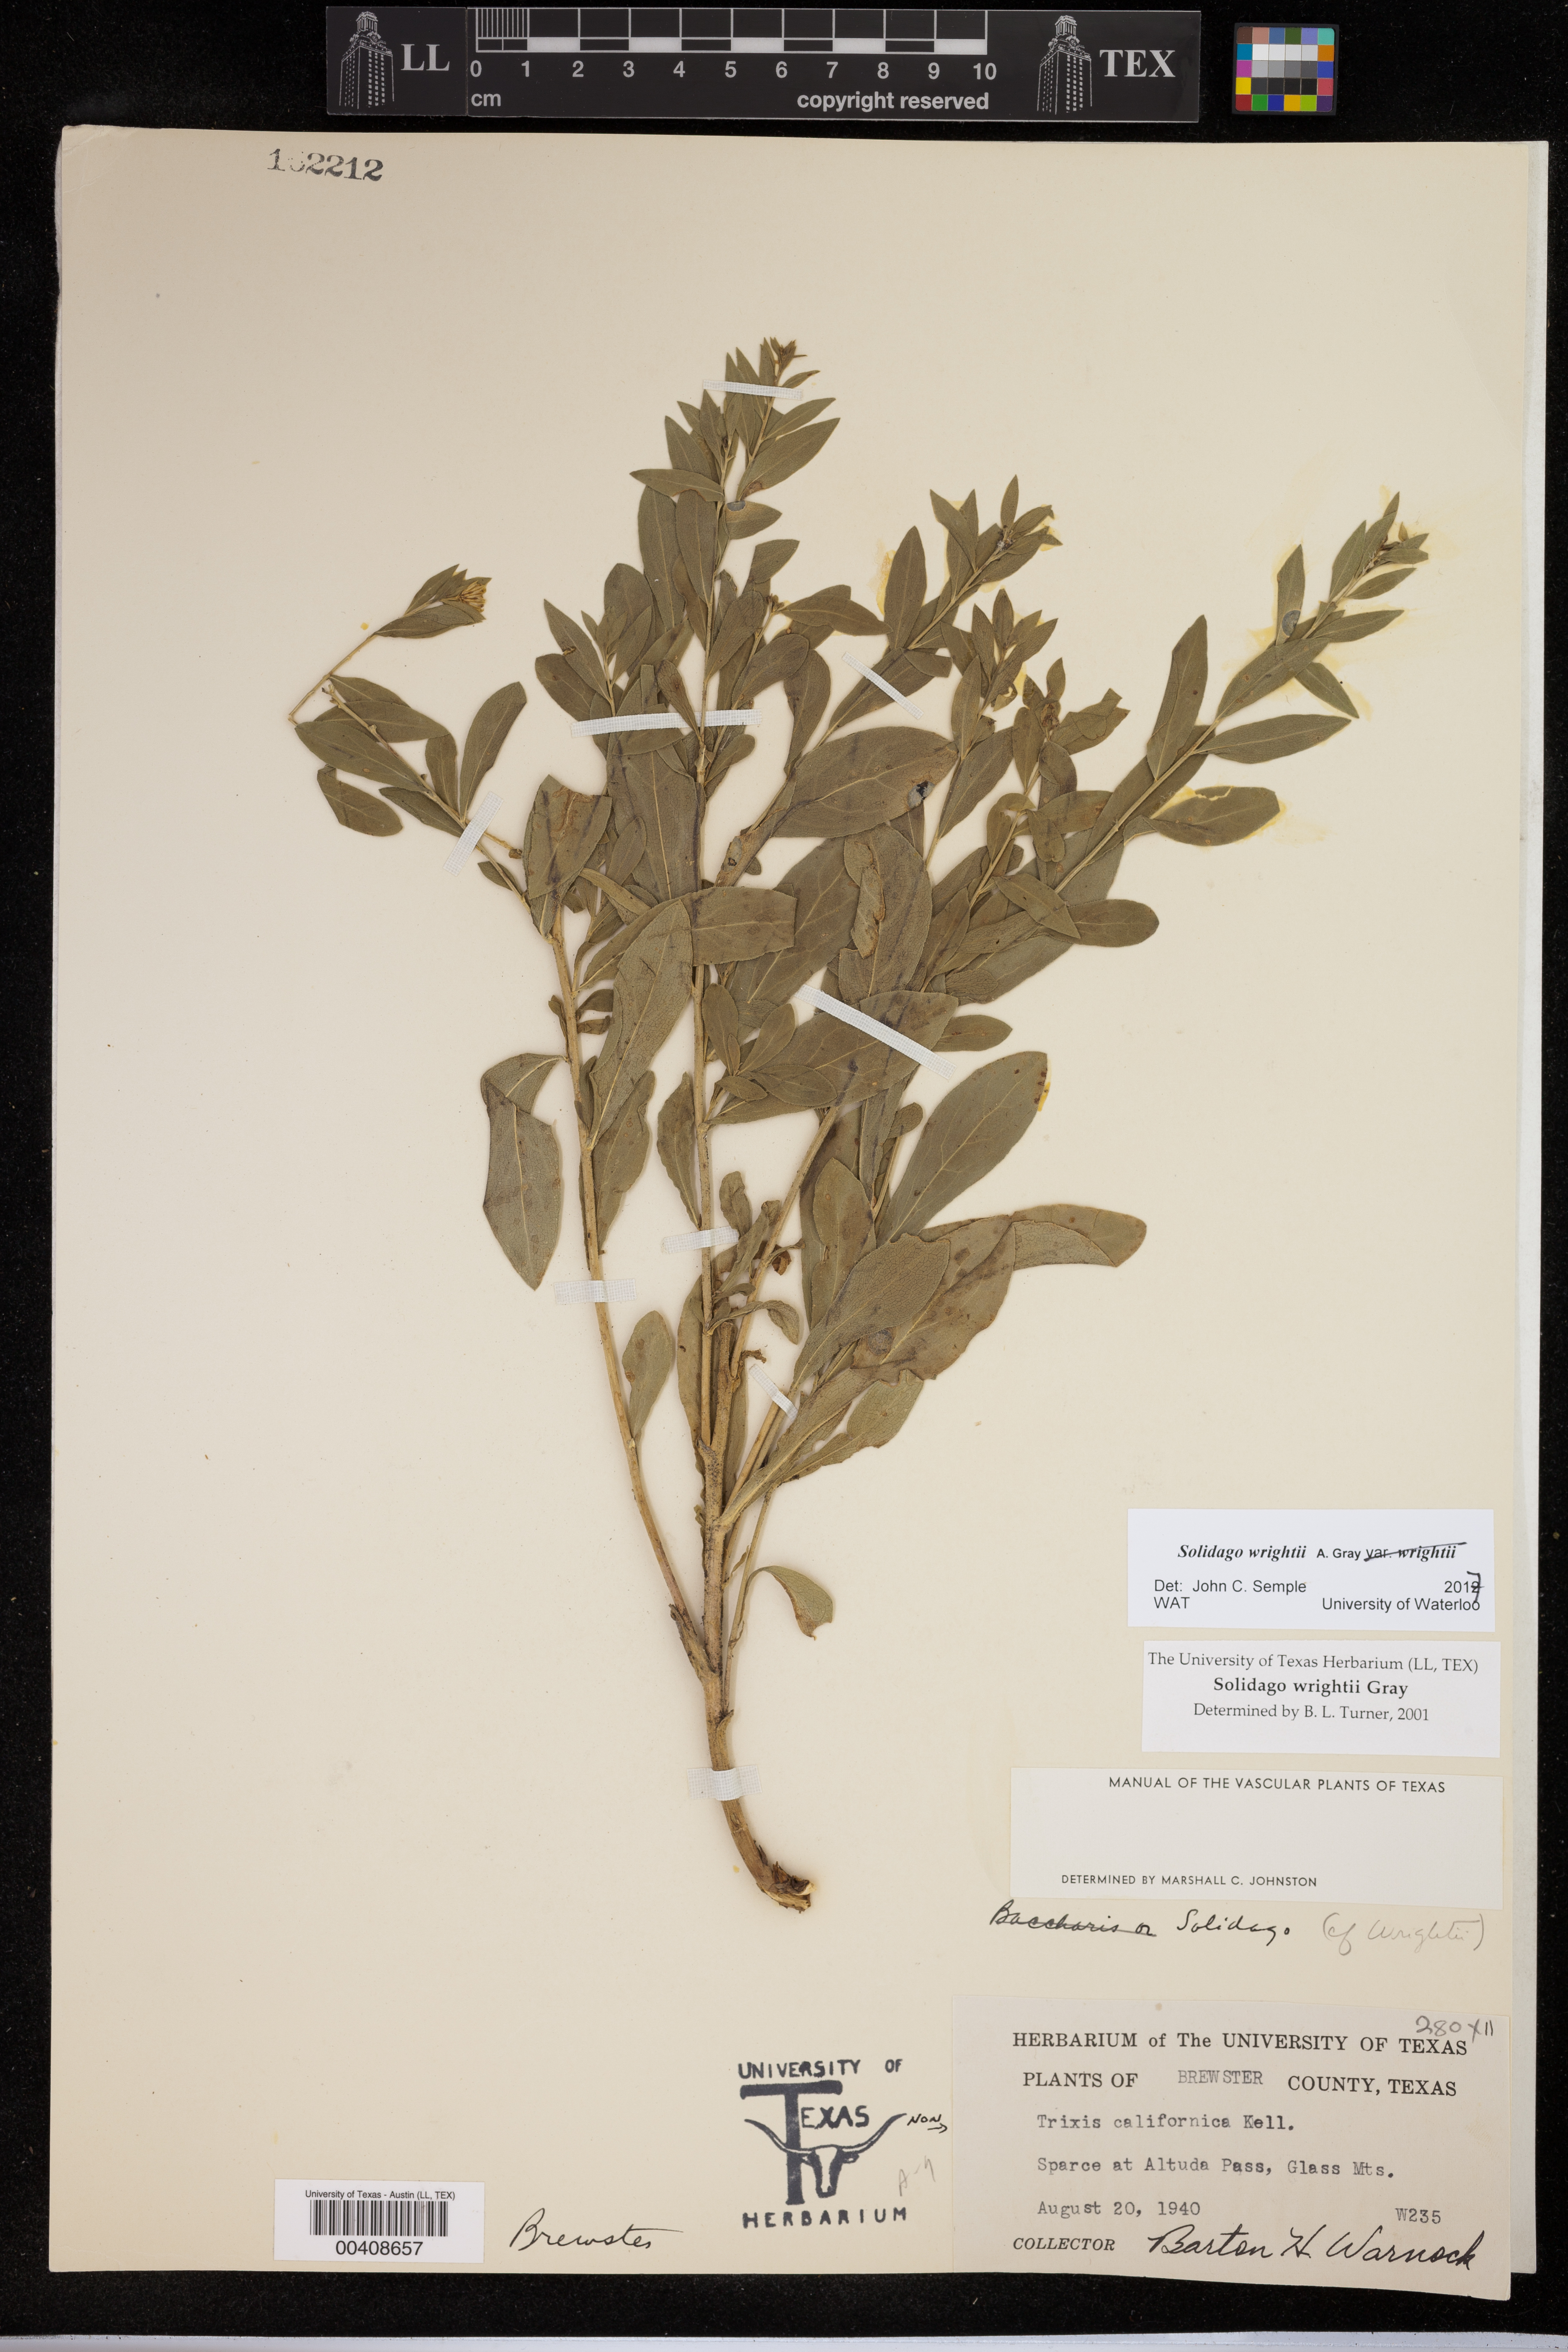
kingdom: Plantae
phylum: Tracheophyta
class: Magnoliopsida
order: Asterales
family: Asteraceae
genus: Solidago
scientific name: Solidago wrightii
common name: Wright's goldenrod
